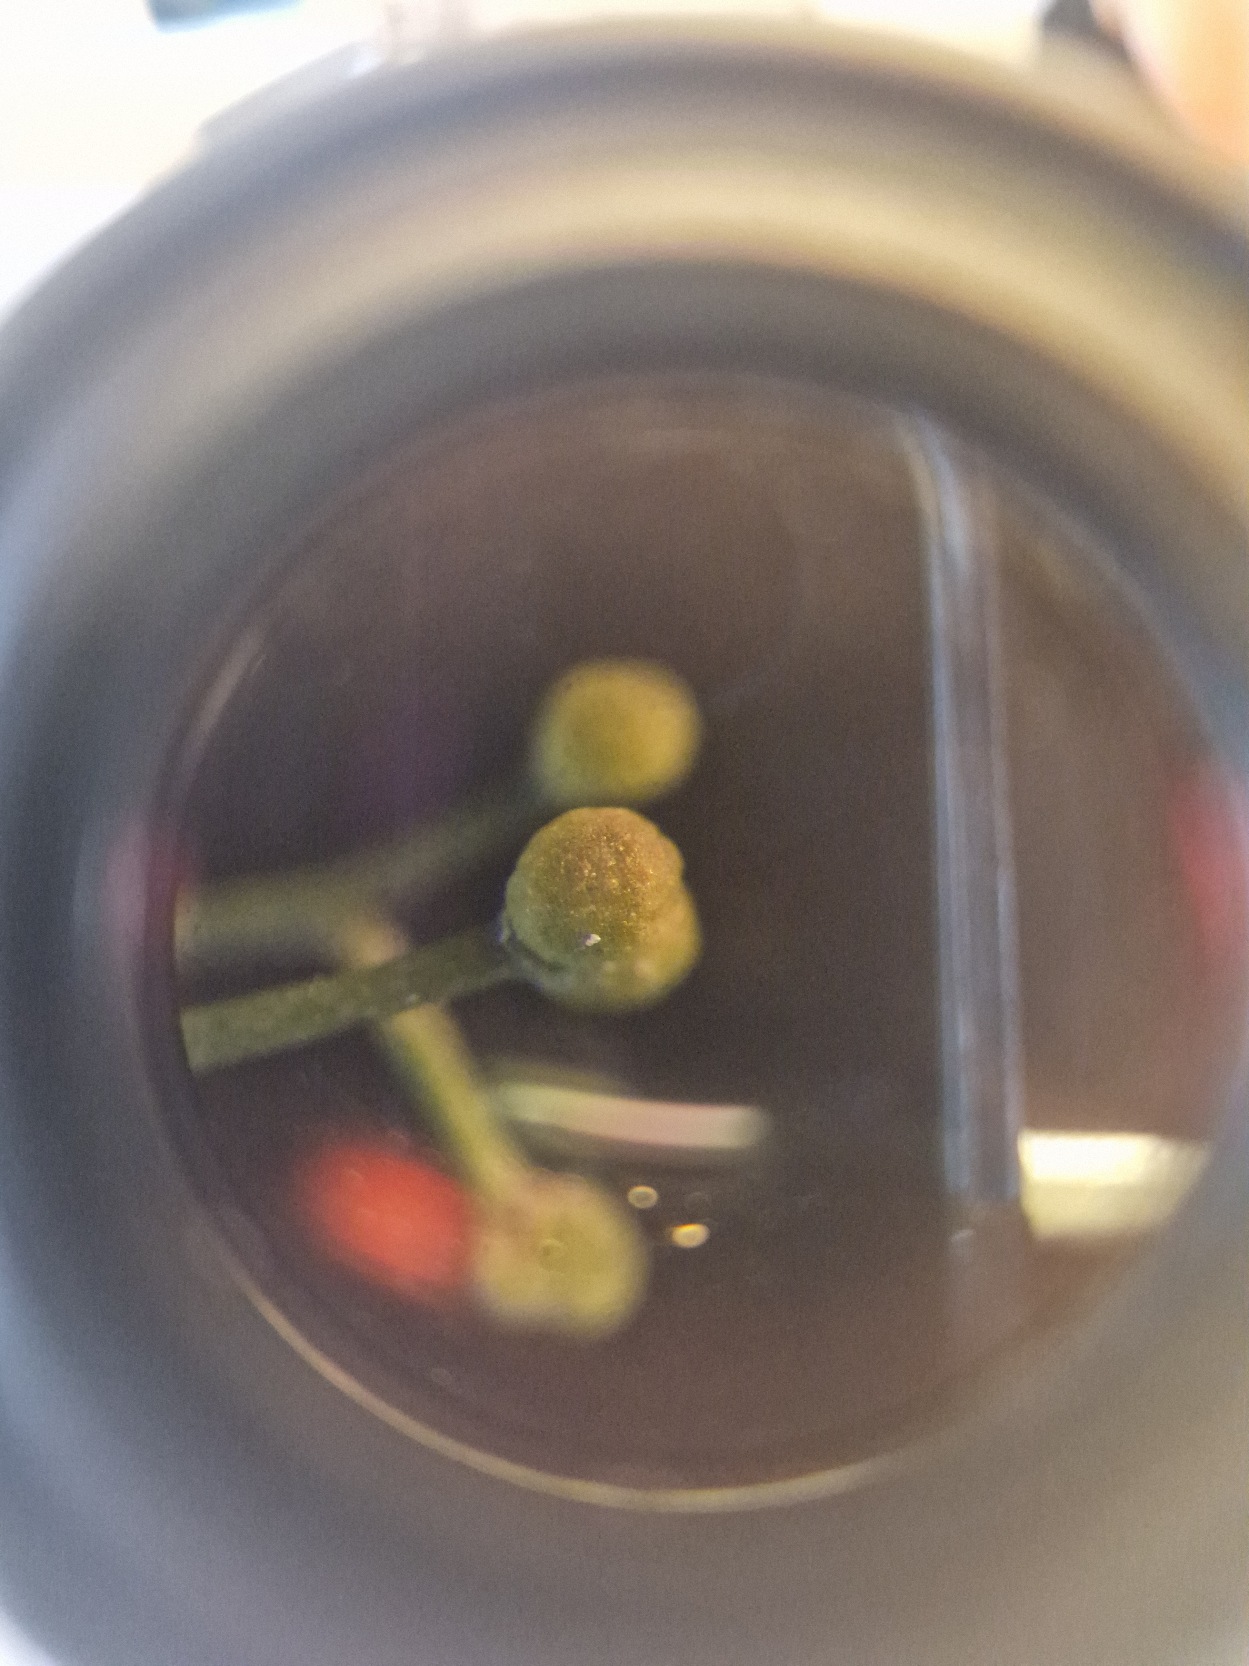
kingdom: Plantae
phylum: Tracheophyta
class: Magnoliopsida
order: Gentianales
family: Rubiaceae
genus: Galium
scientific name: Galium palustre
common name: Kær-snerre
